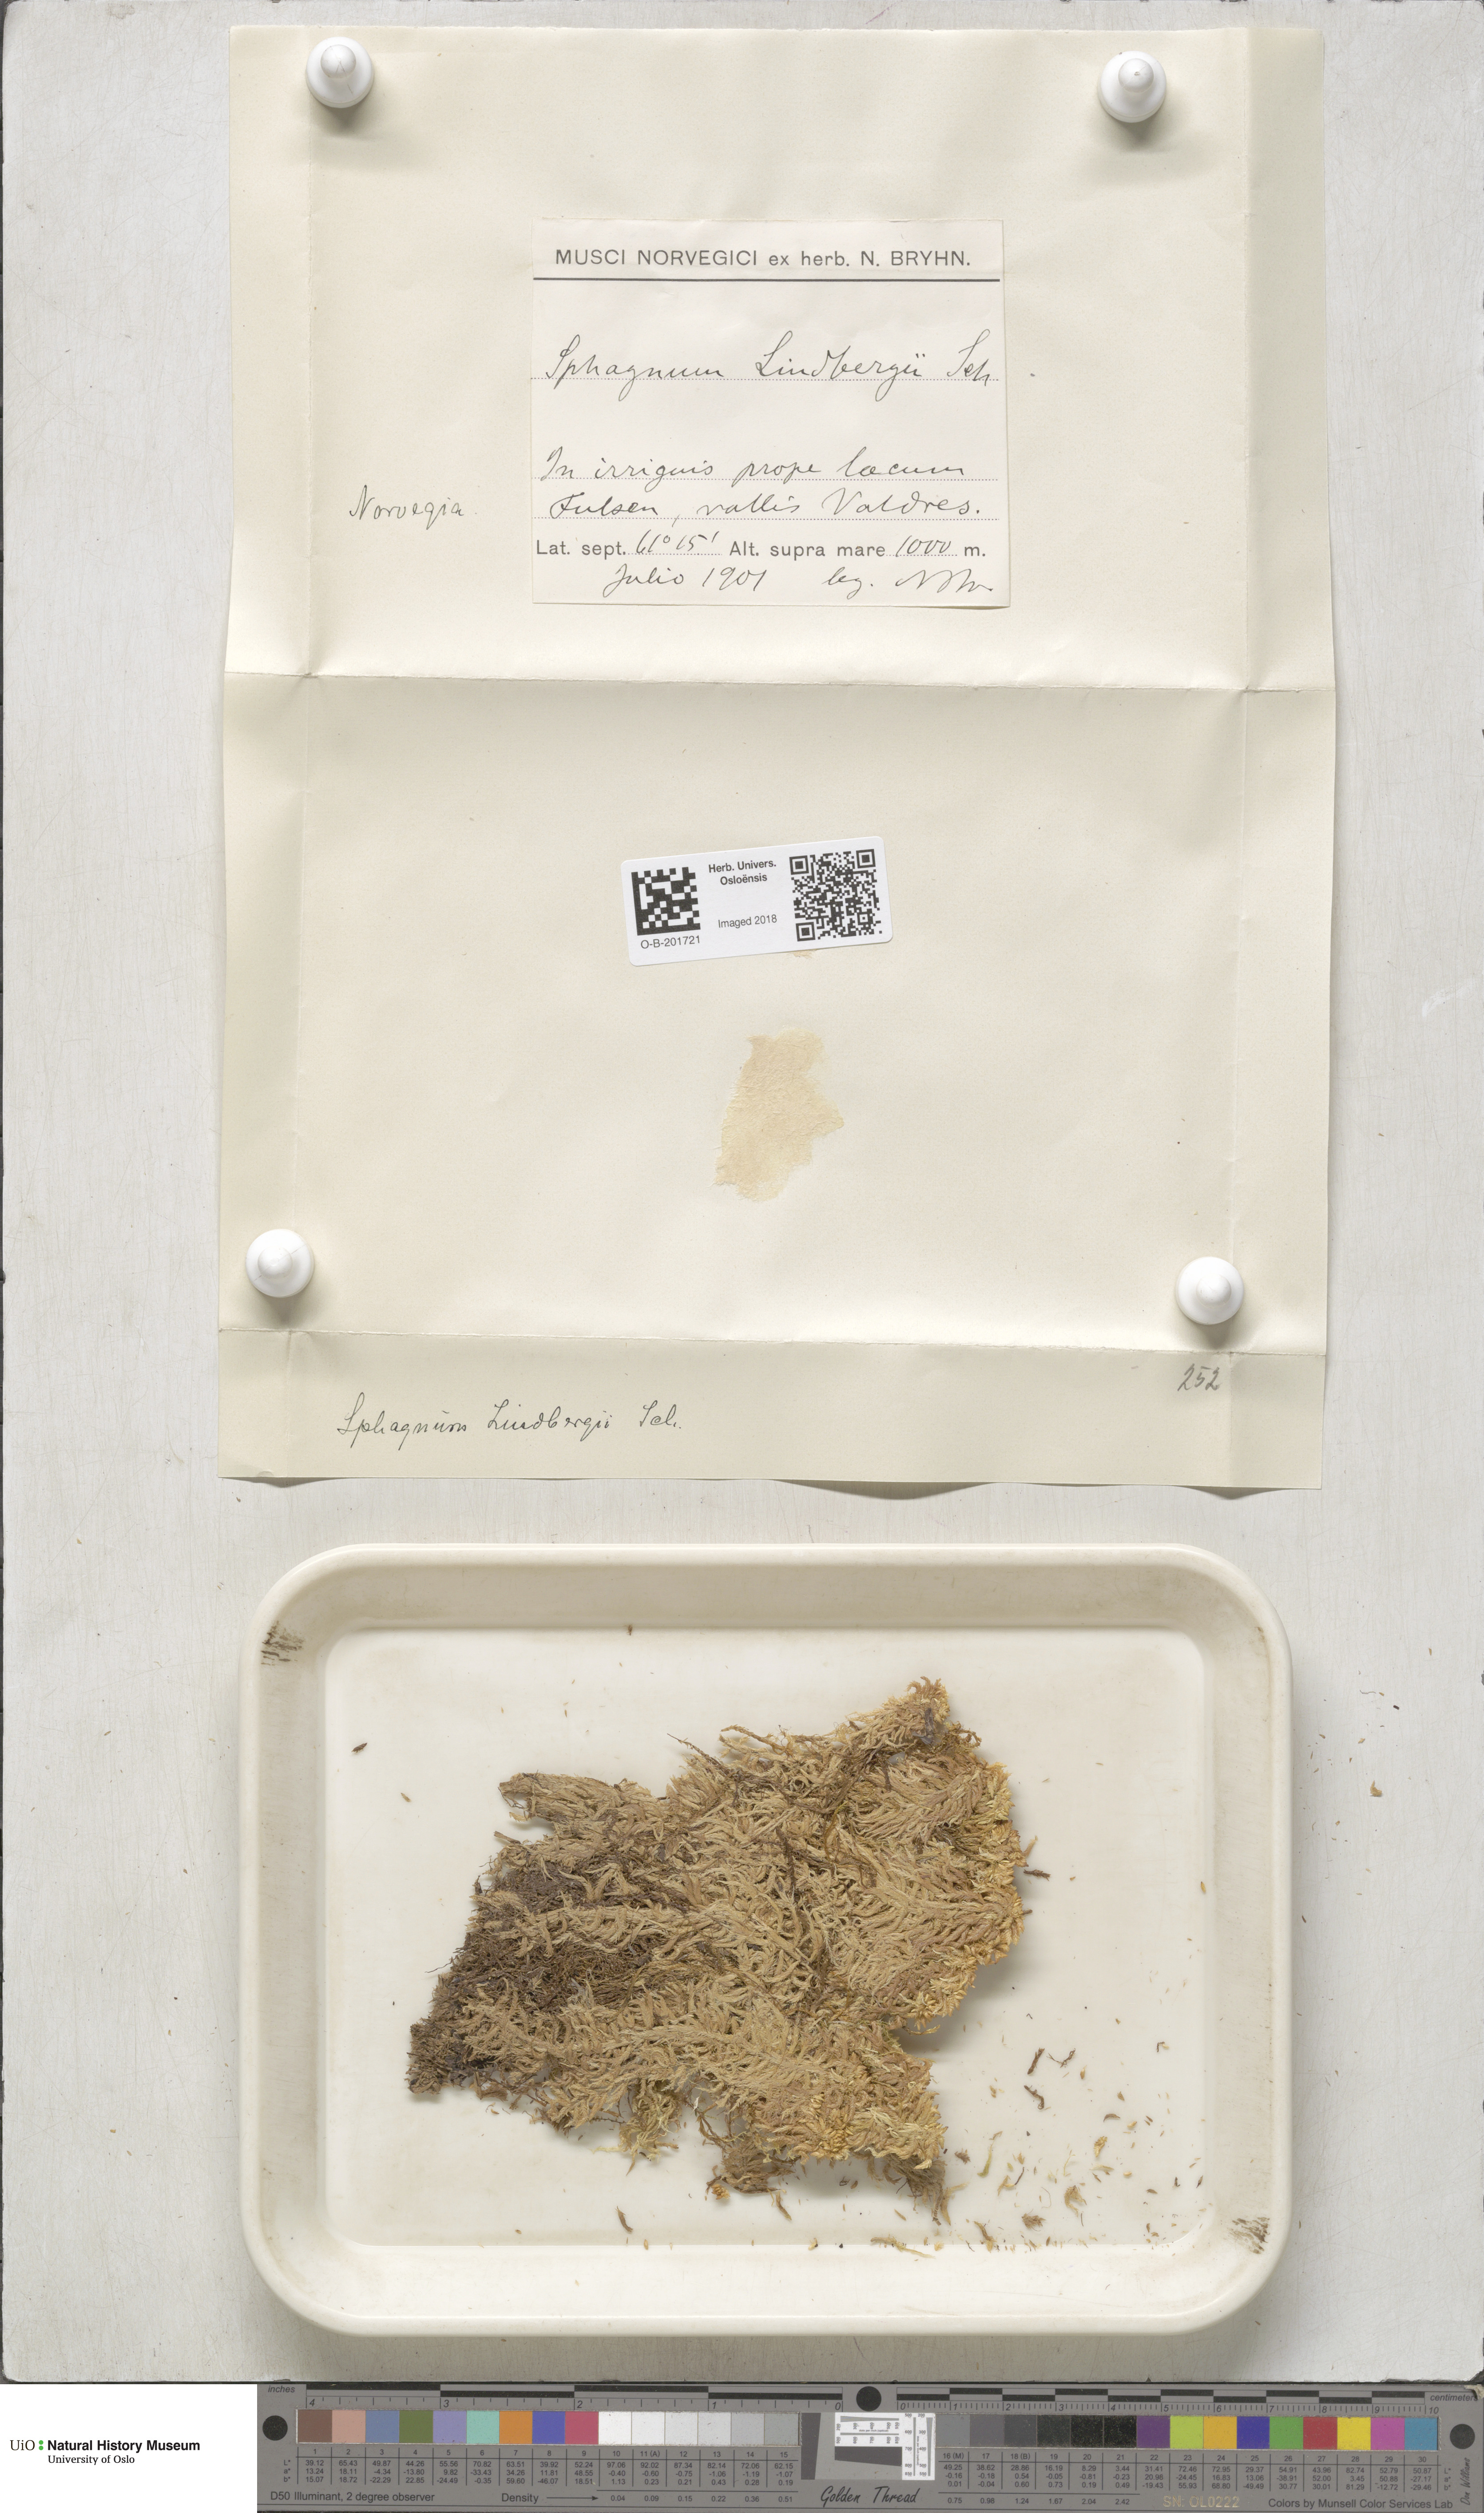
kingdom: Plantae
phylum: Bryophyta
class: Sphagnopsida
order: Sphagnales
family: Sphagnaceae
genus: Sphagnum
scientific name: Sphagnum lindbergii
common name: Lindberg's peat moss
